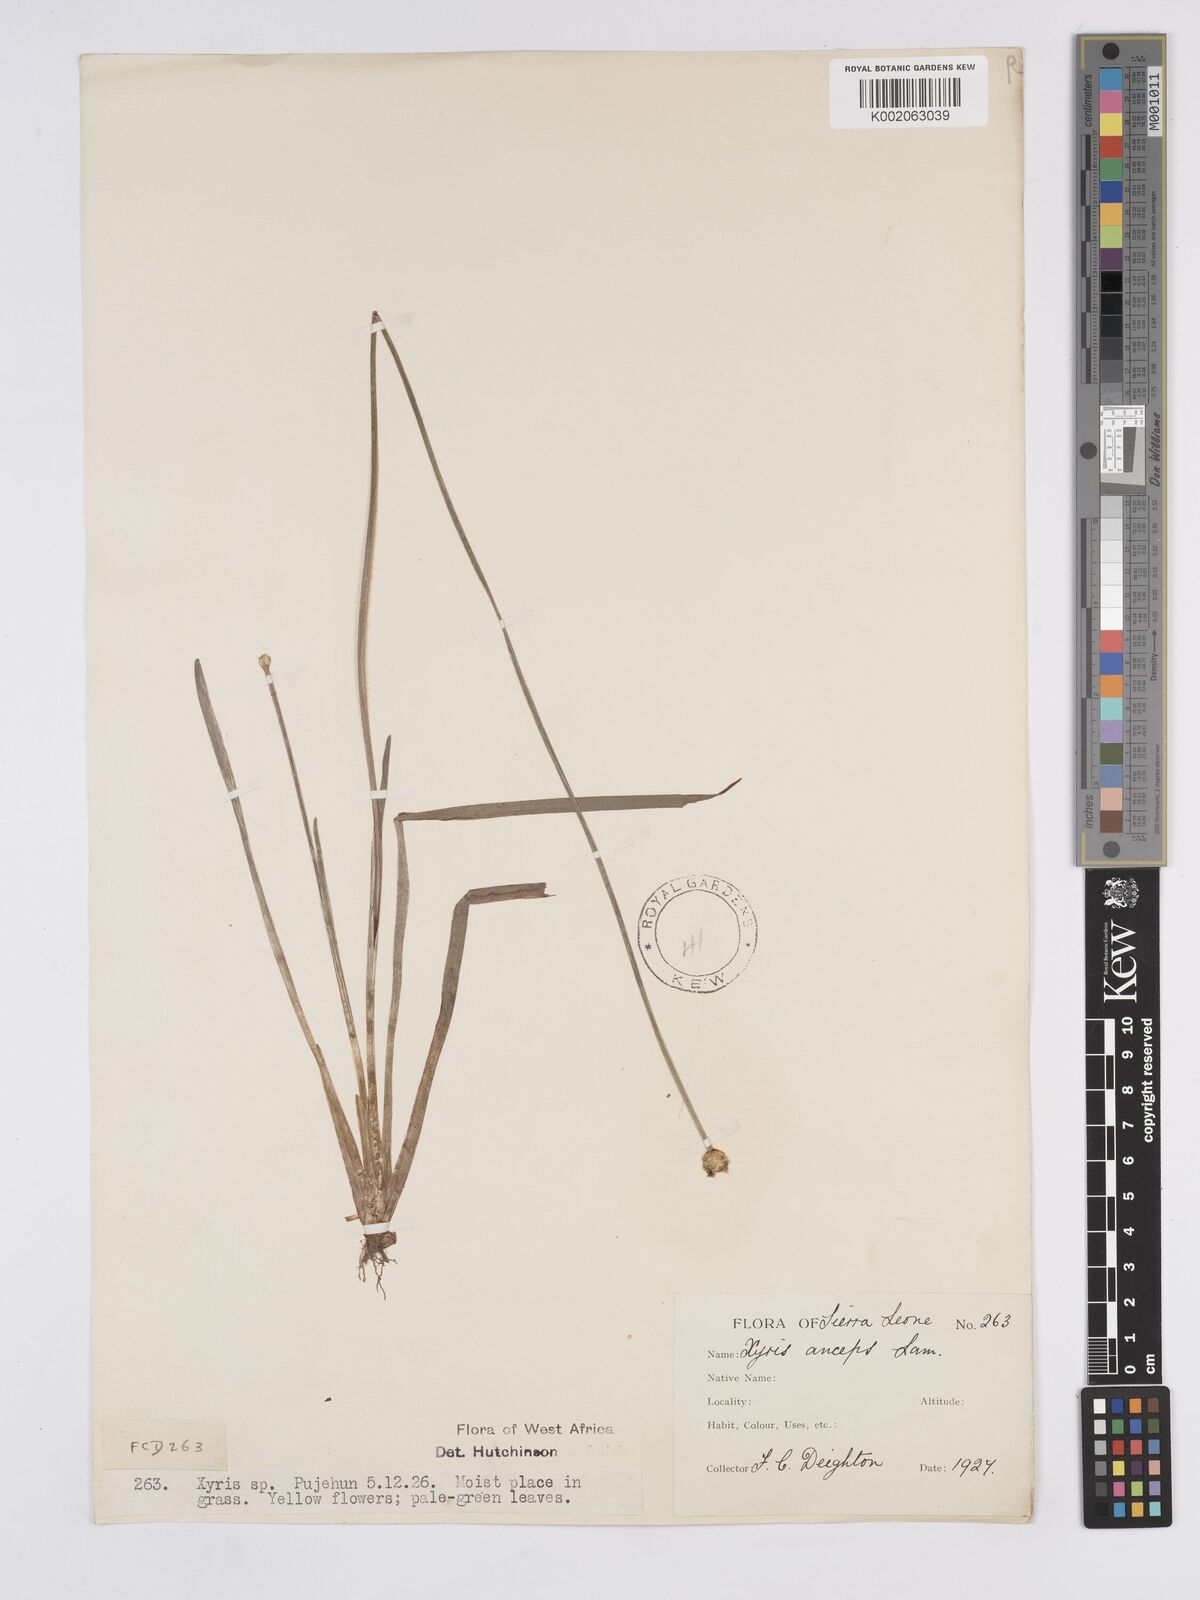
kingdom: Plantae
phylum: Tracheophyta
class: Liliopsida
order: Poales
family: Xyridaceae
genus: Xyris
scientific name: Xyris anceps
